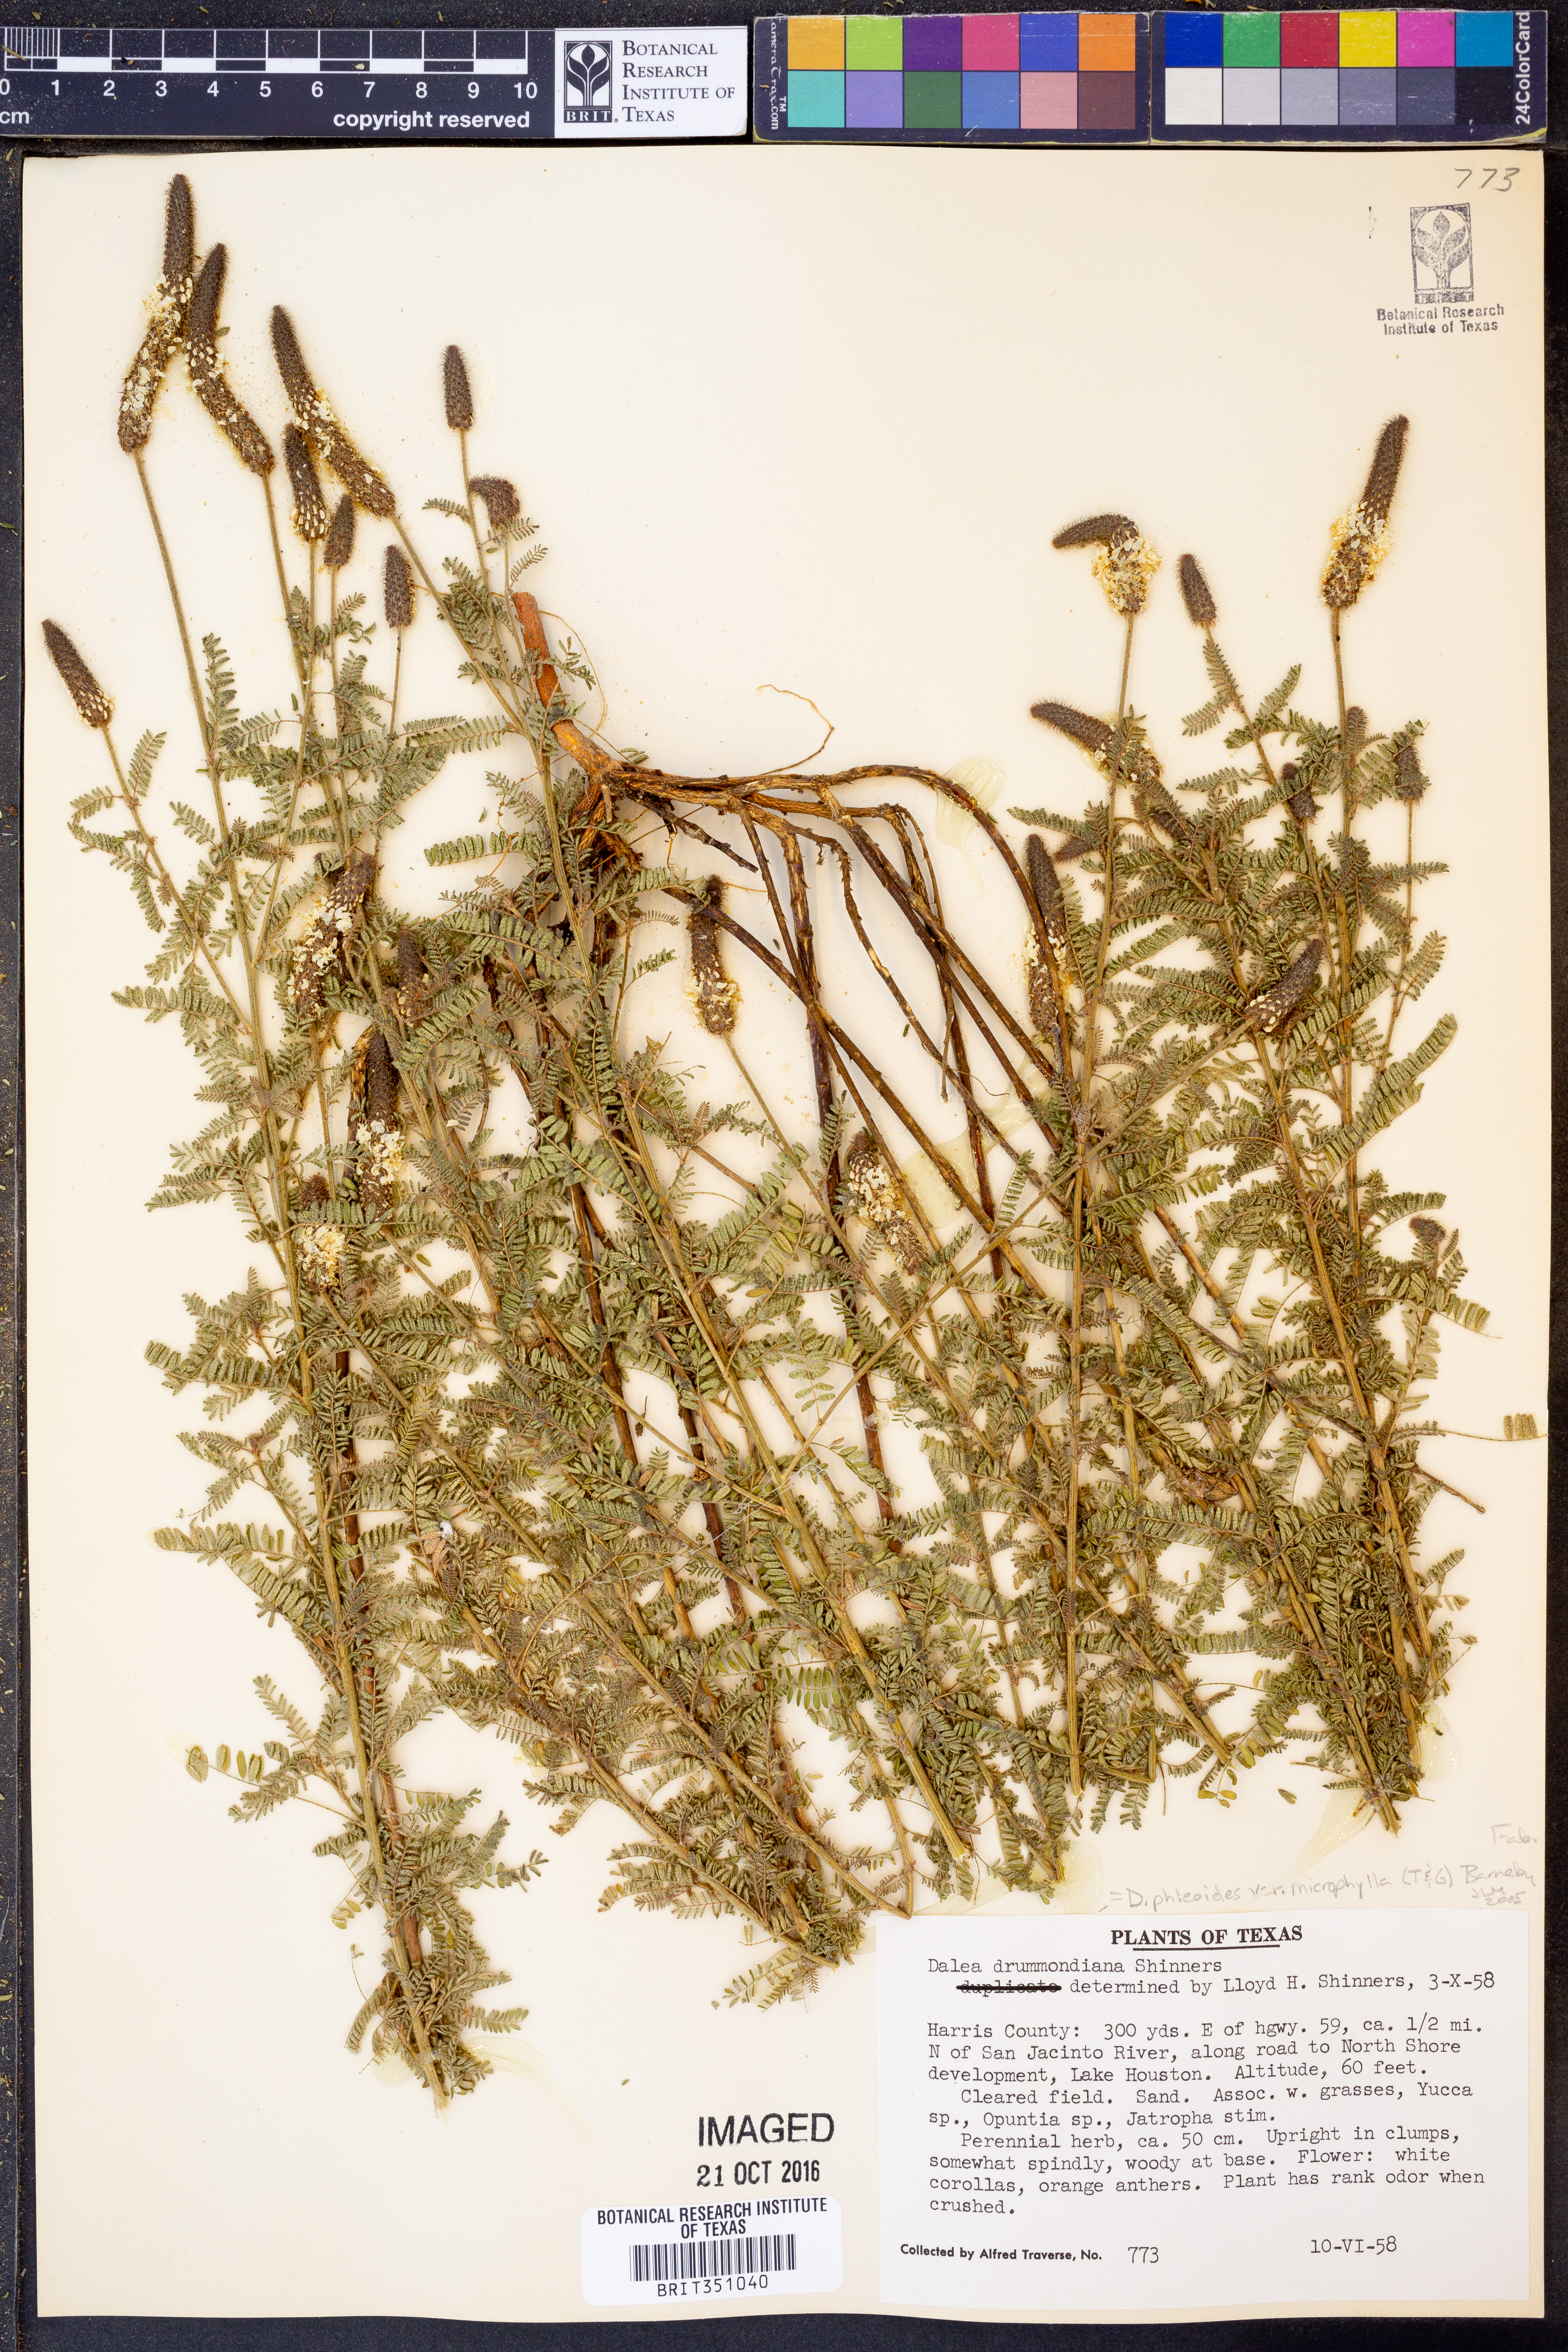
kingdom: Plantae
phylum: Tracheophyta
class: Magnoliopsida
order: Fabales
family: Fabaceae
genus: Dalea
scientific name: Dalea drummondiana
